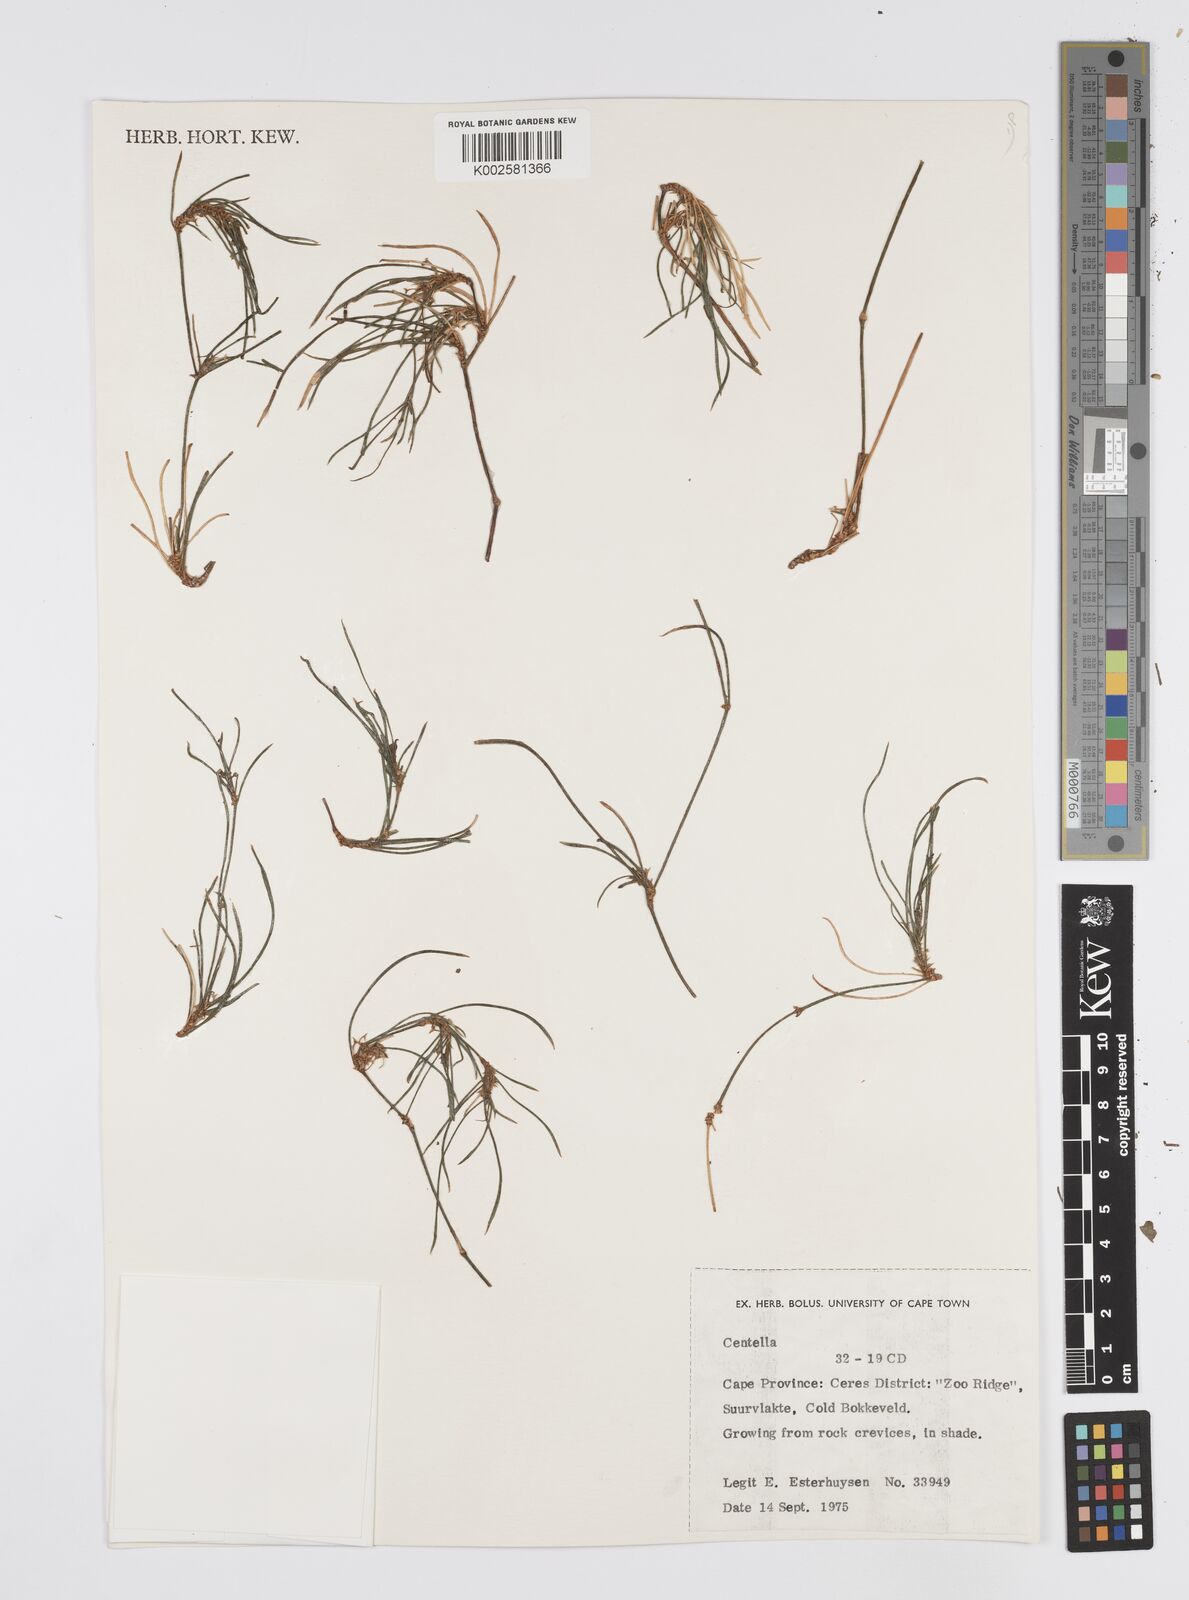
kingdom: Plantae
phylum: Tracheophyta
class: Magnoliopsida
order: Apiales
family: Apiaceae
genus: Centella
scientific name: Centella
